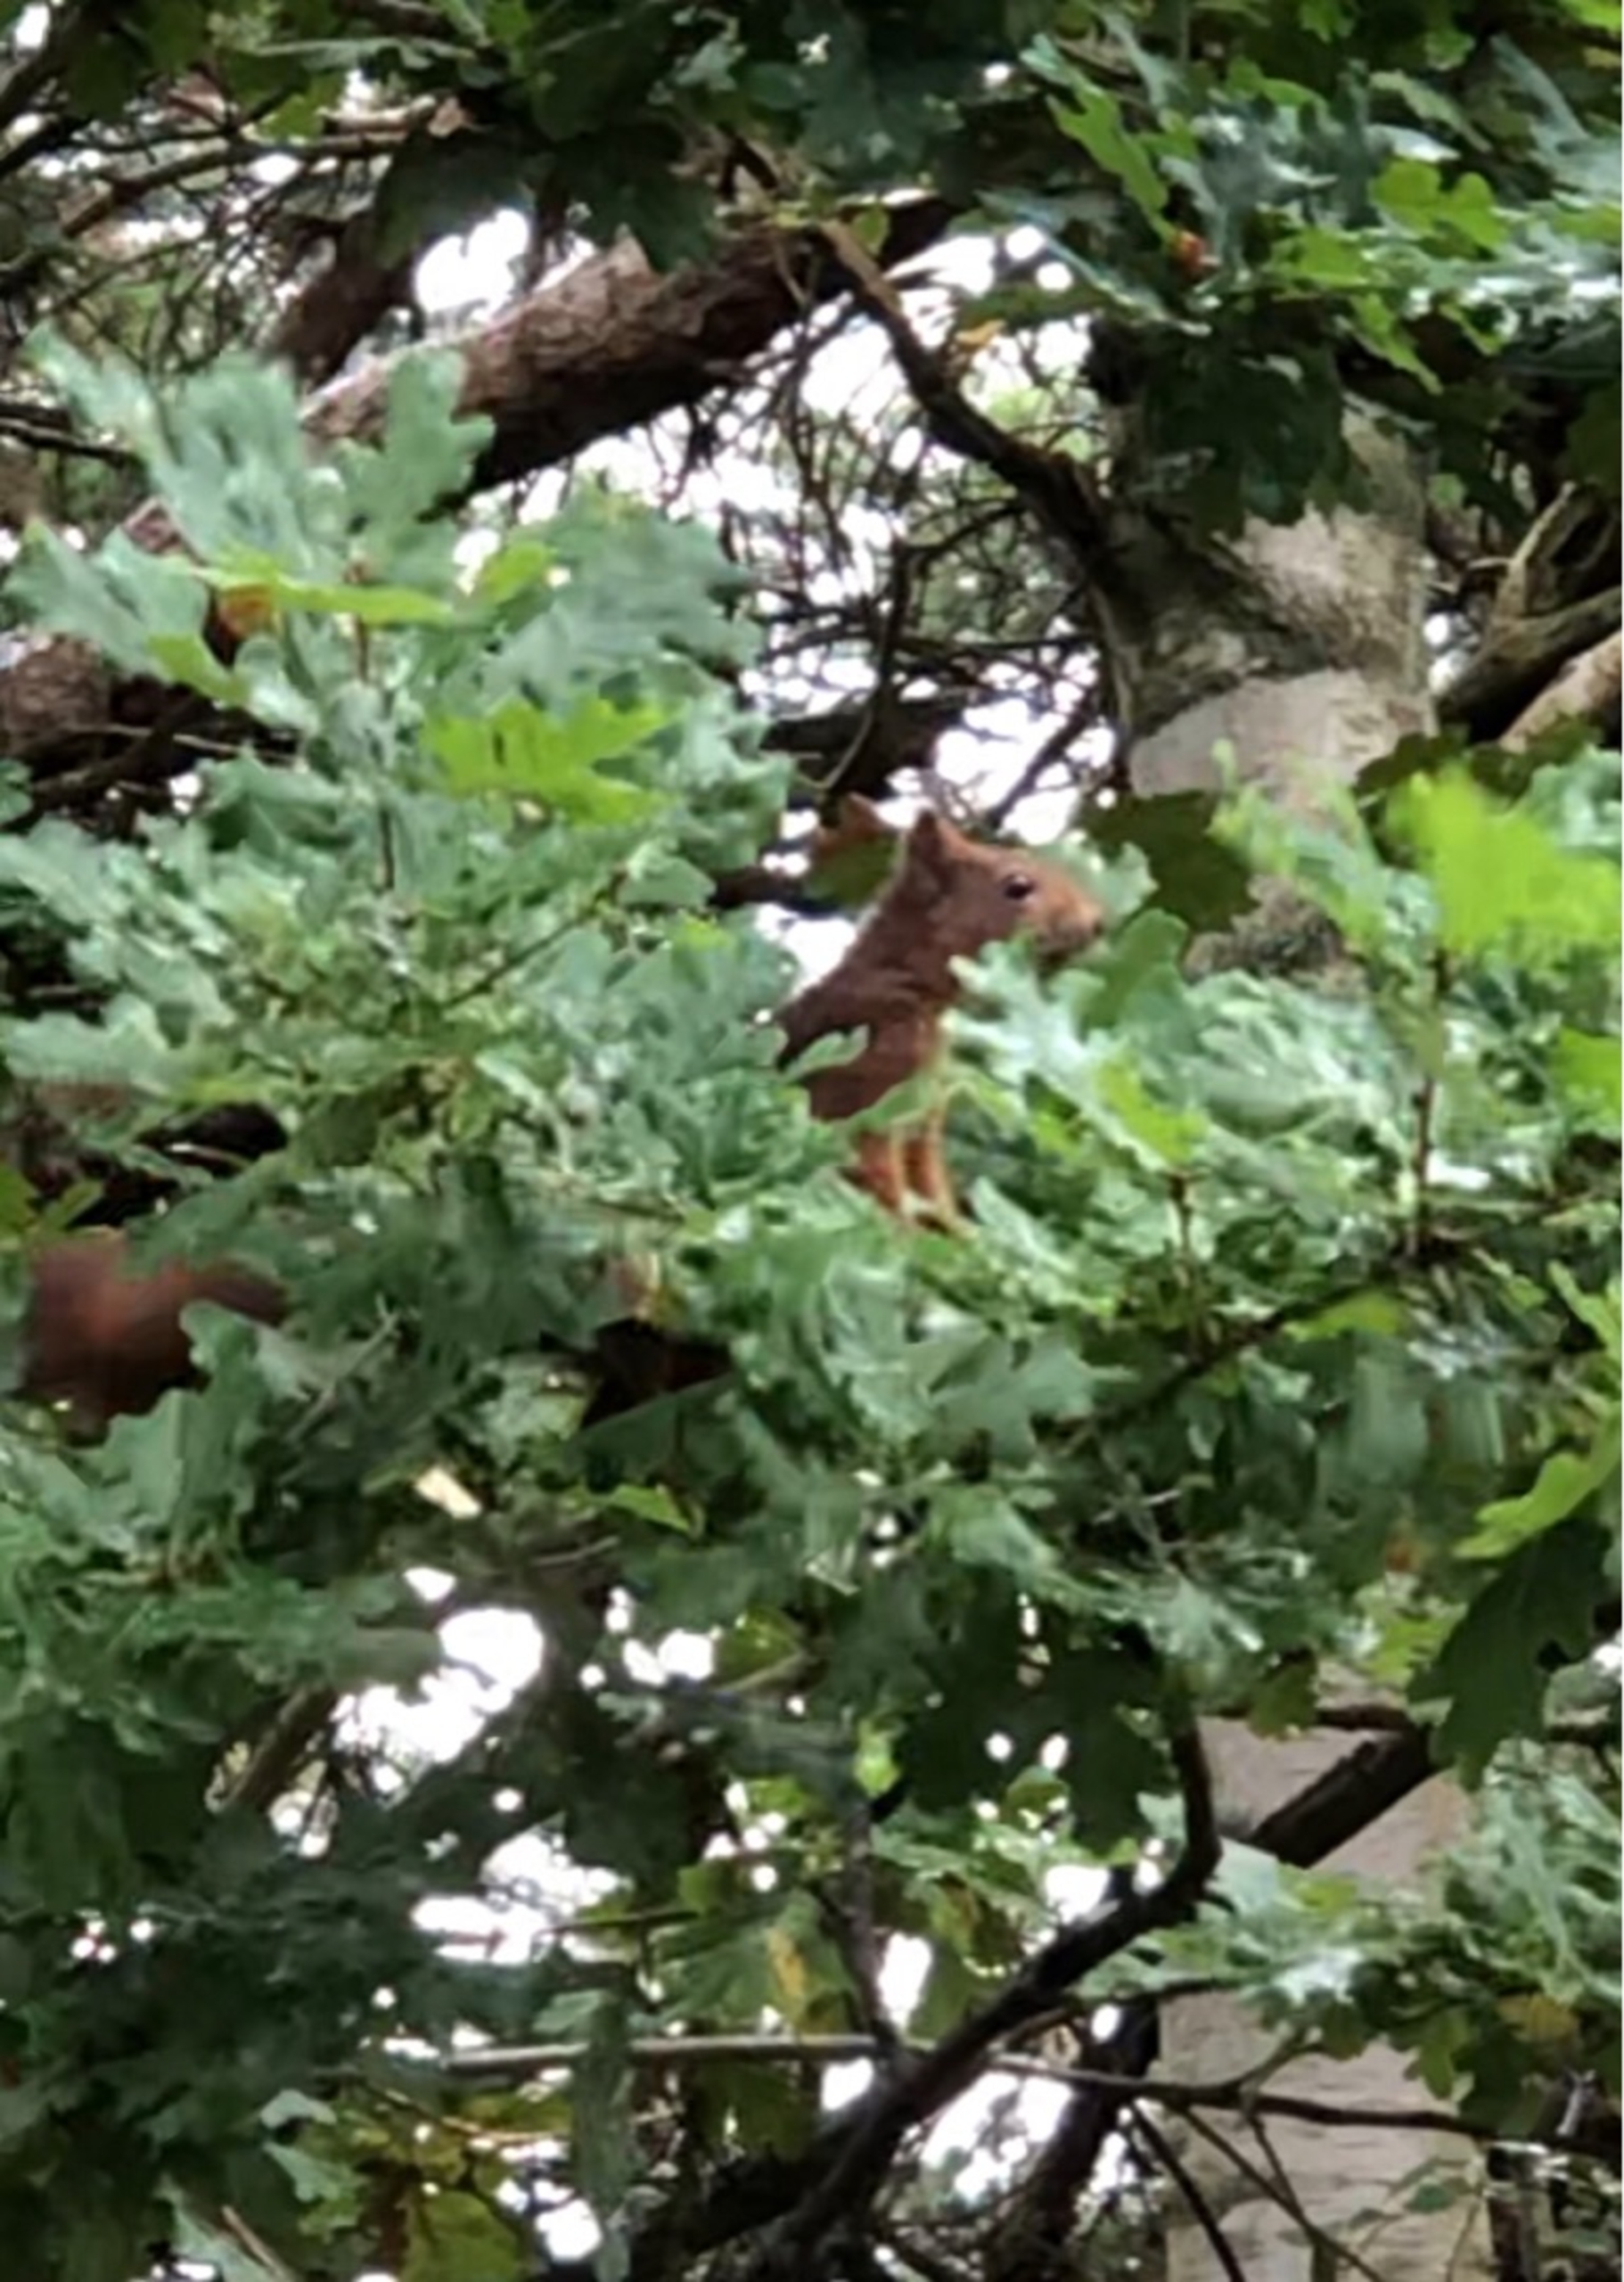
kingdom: Animalia
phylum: Chordata
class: Mammalia
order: Rodentia
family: Sciuridae
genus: Sciurus
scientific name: Sciurus vulgaris
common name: Egern
